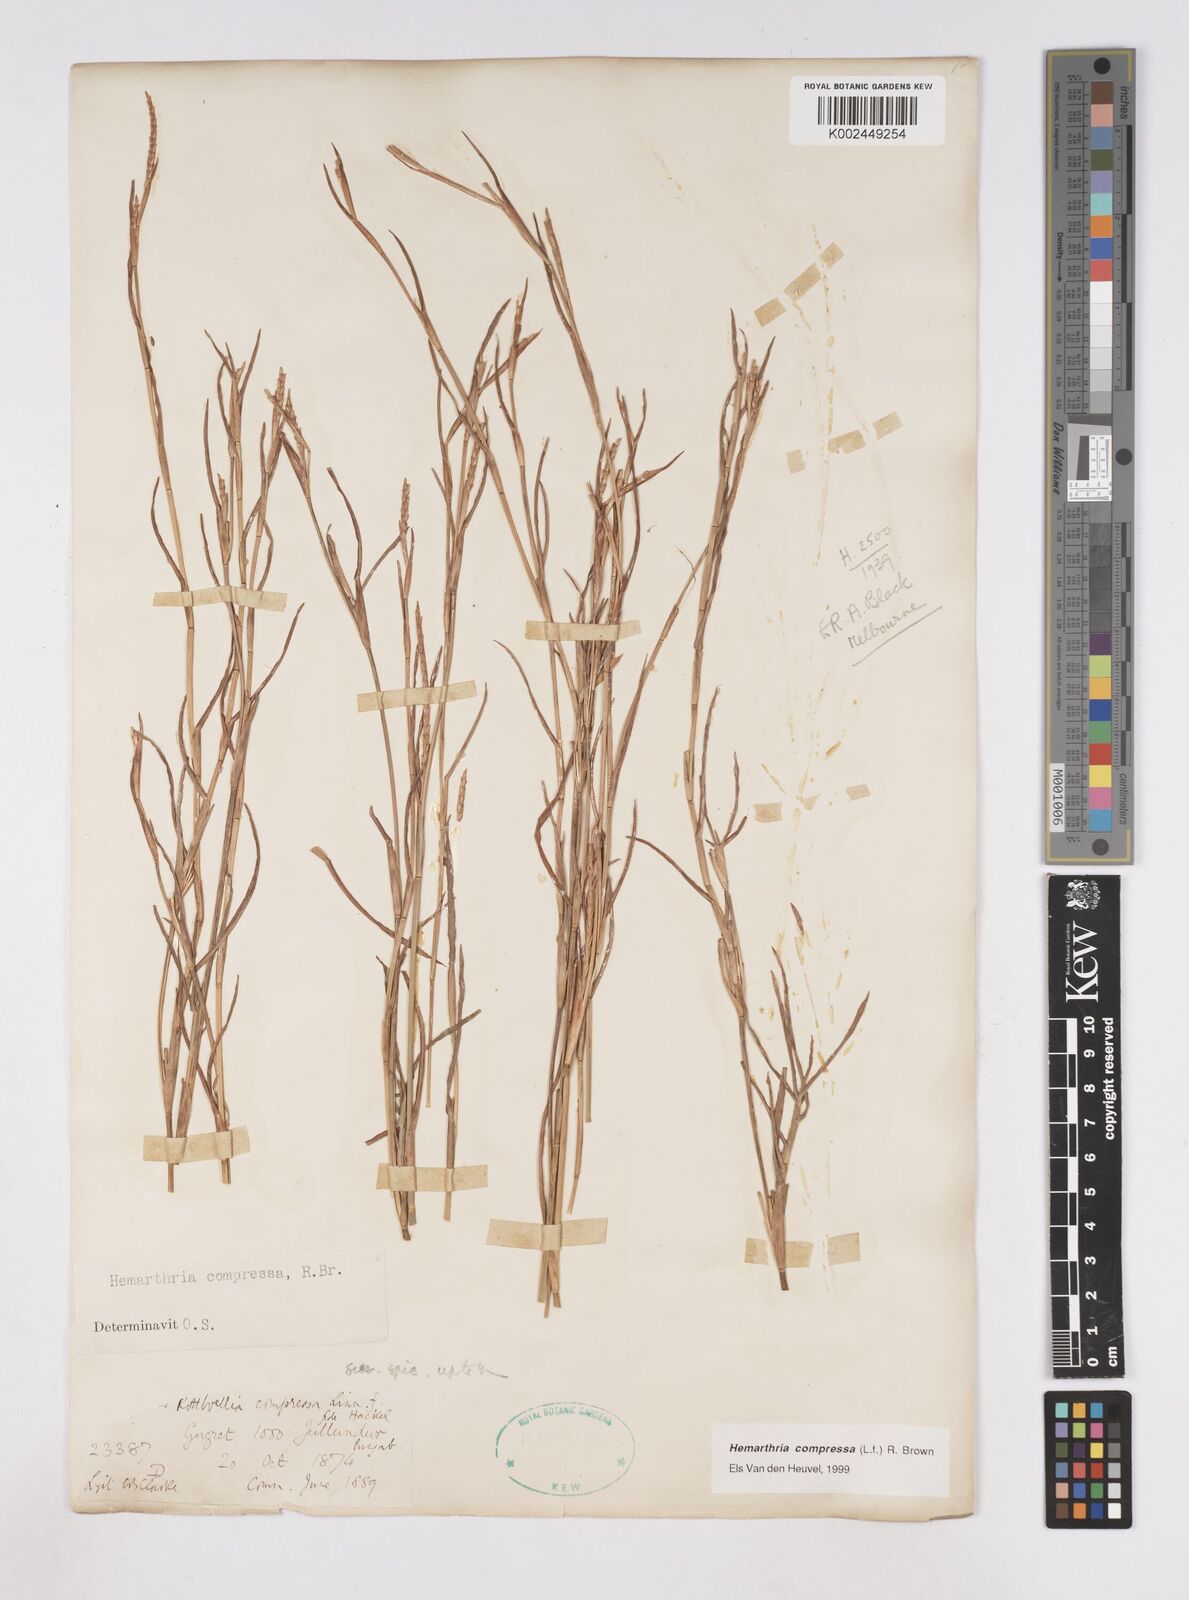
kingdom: Plantae
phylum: Tracheophyta
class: Liliopsida
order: Poales
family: Poaceae
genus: Hemarthria
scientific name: Hemarthria compressa
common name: Whip grass
